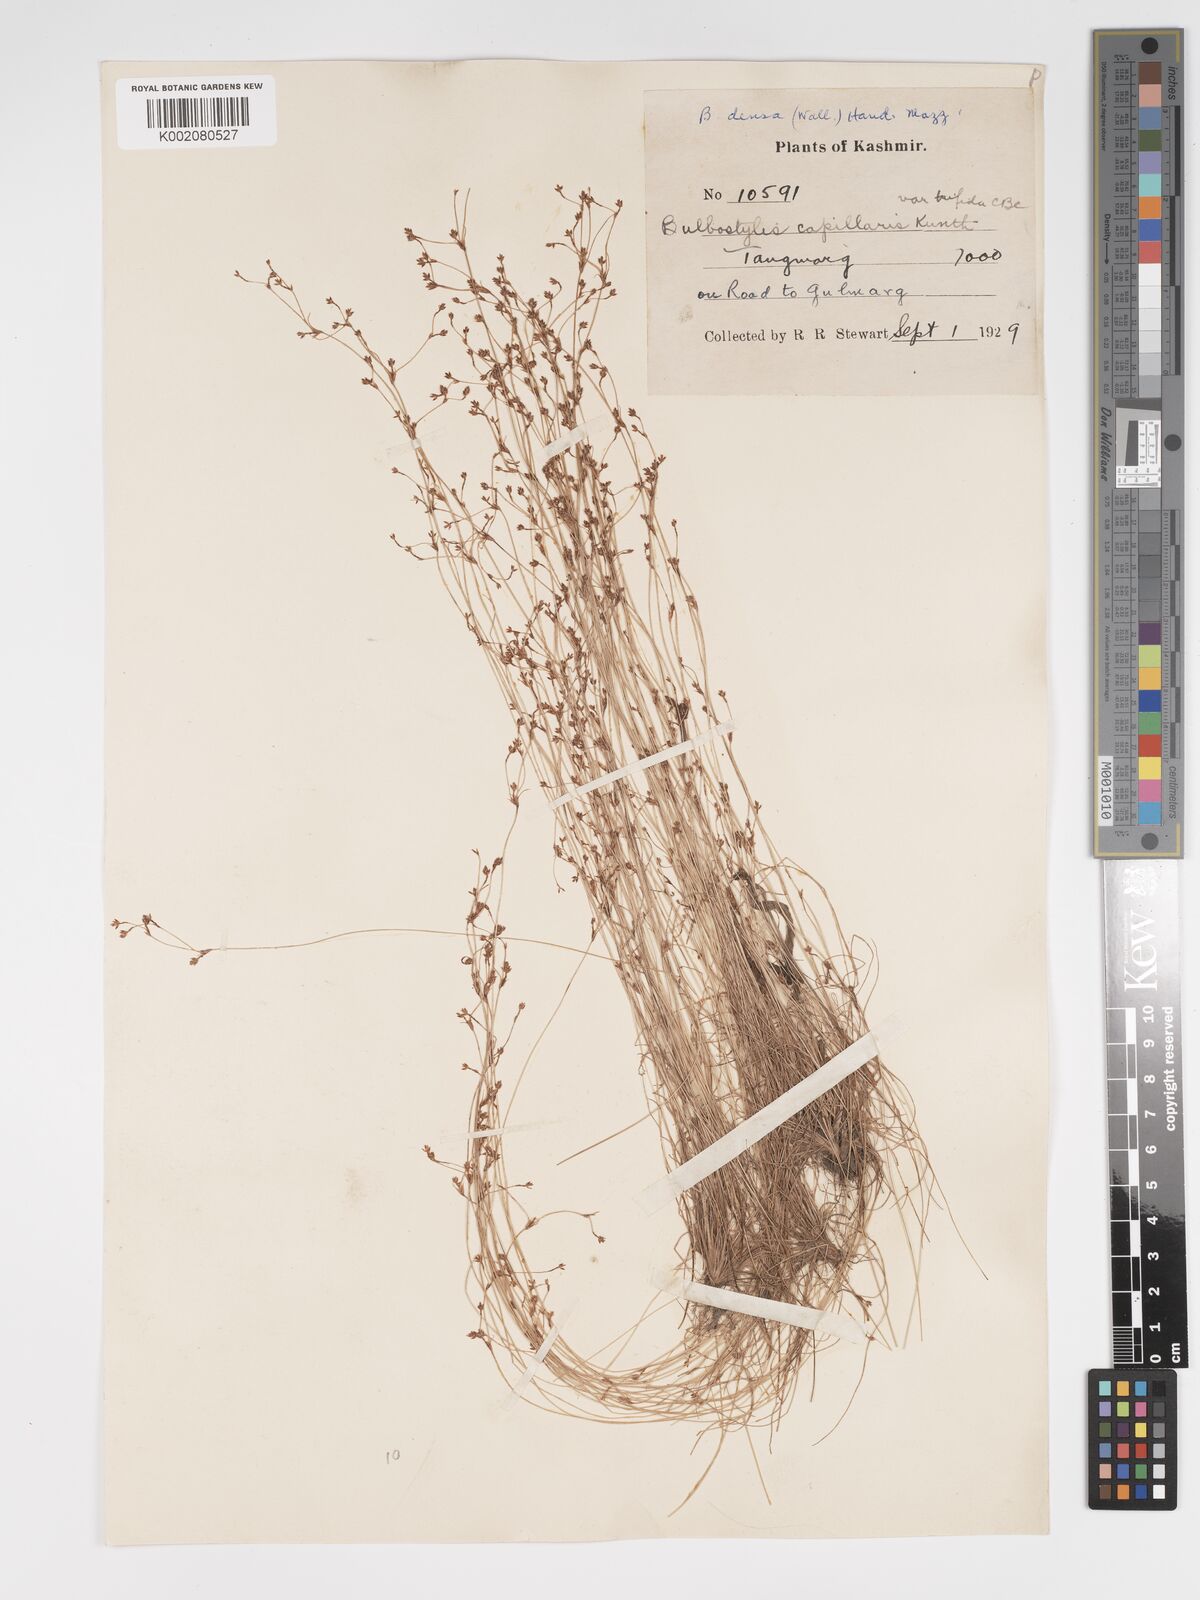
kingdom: Plantae
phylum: Tracheophyta
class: Liliopsida
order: Poales
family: Cyperaceae
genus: Bulbostylis
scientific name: Bulbostylis capillaris
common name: Densetuft hairsedge
